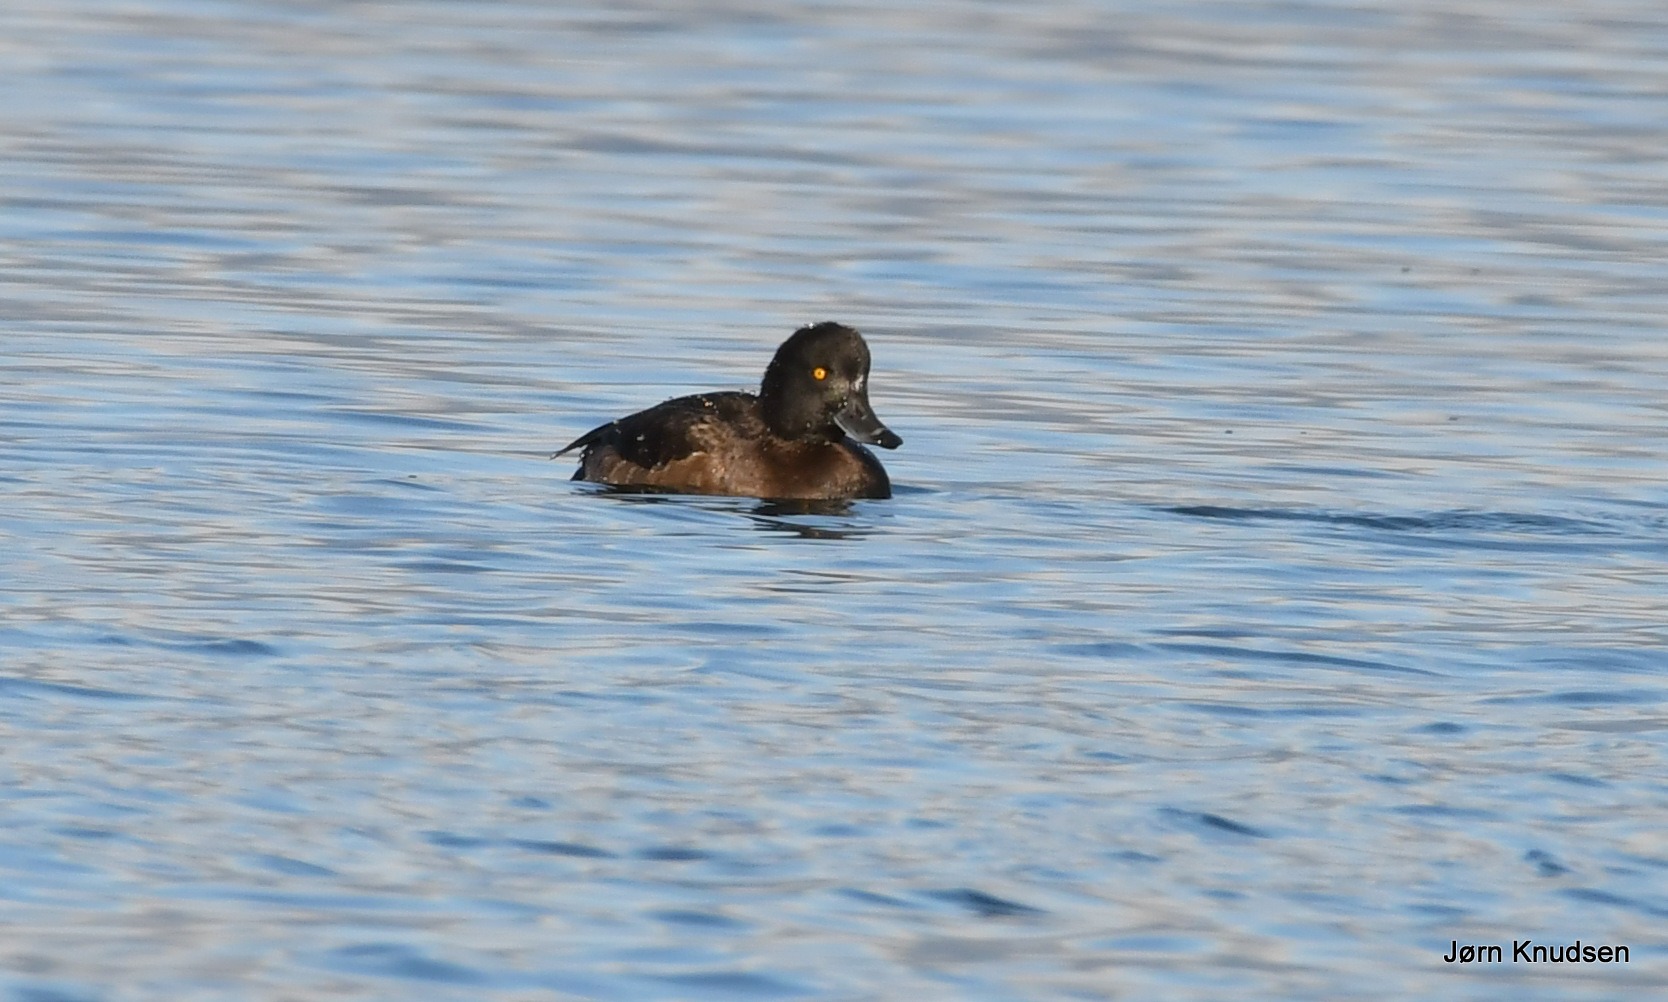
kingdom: Animalia
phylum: Chordata
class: Aves
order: Anseriformes
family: Anatidae
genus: Aythya
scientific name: Aythya fuligula
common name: Troldand
